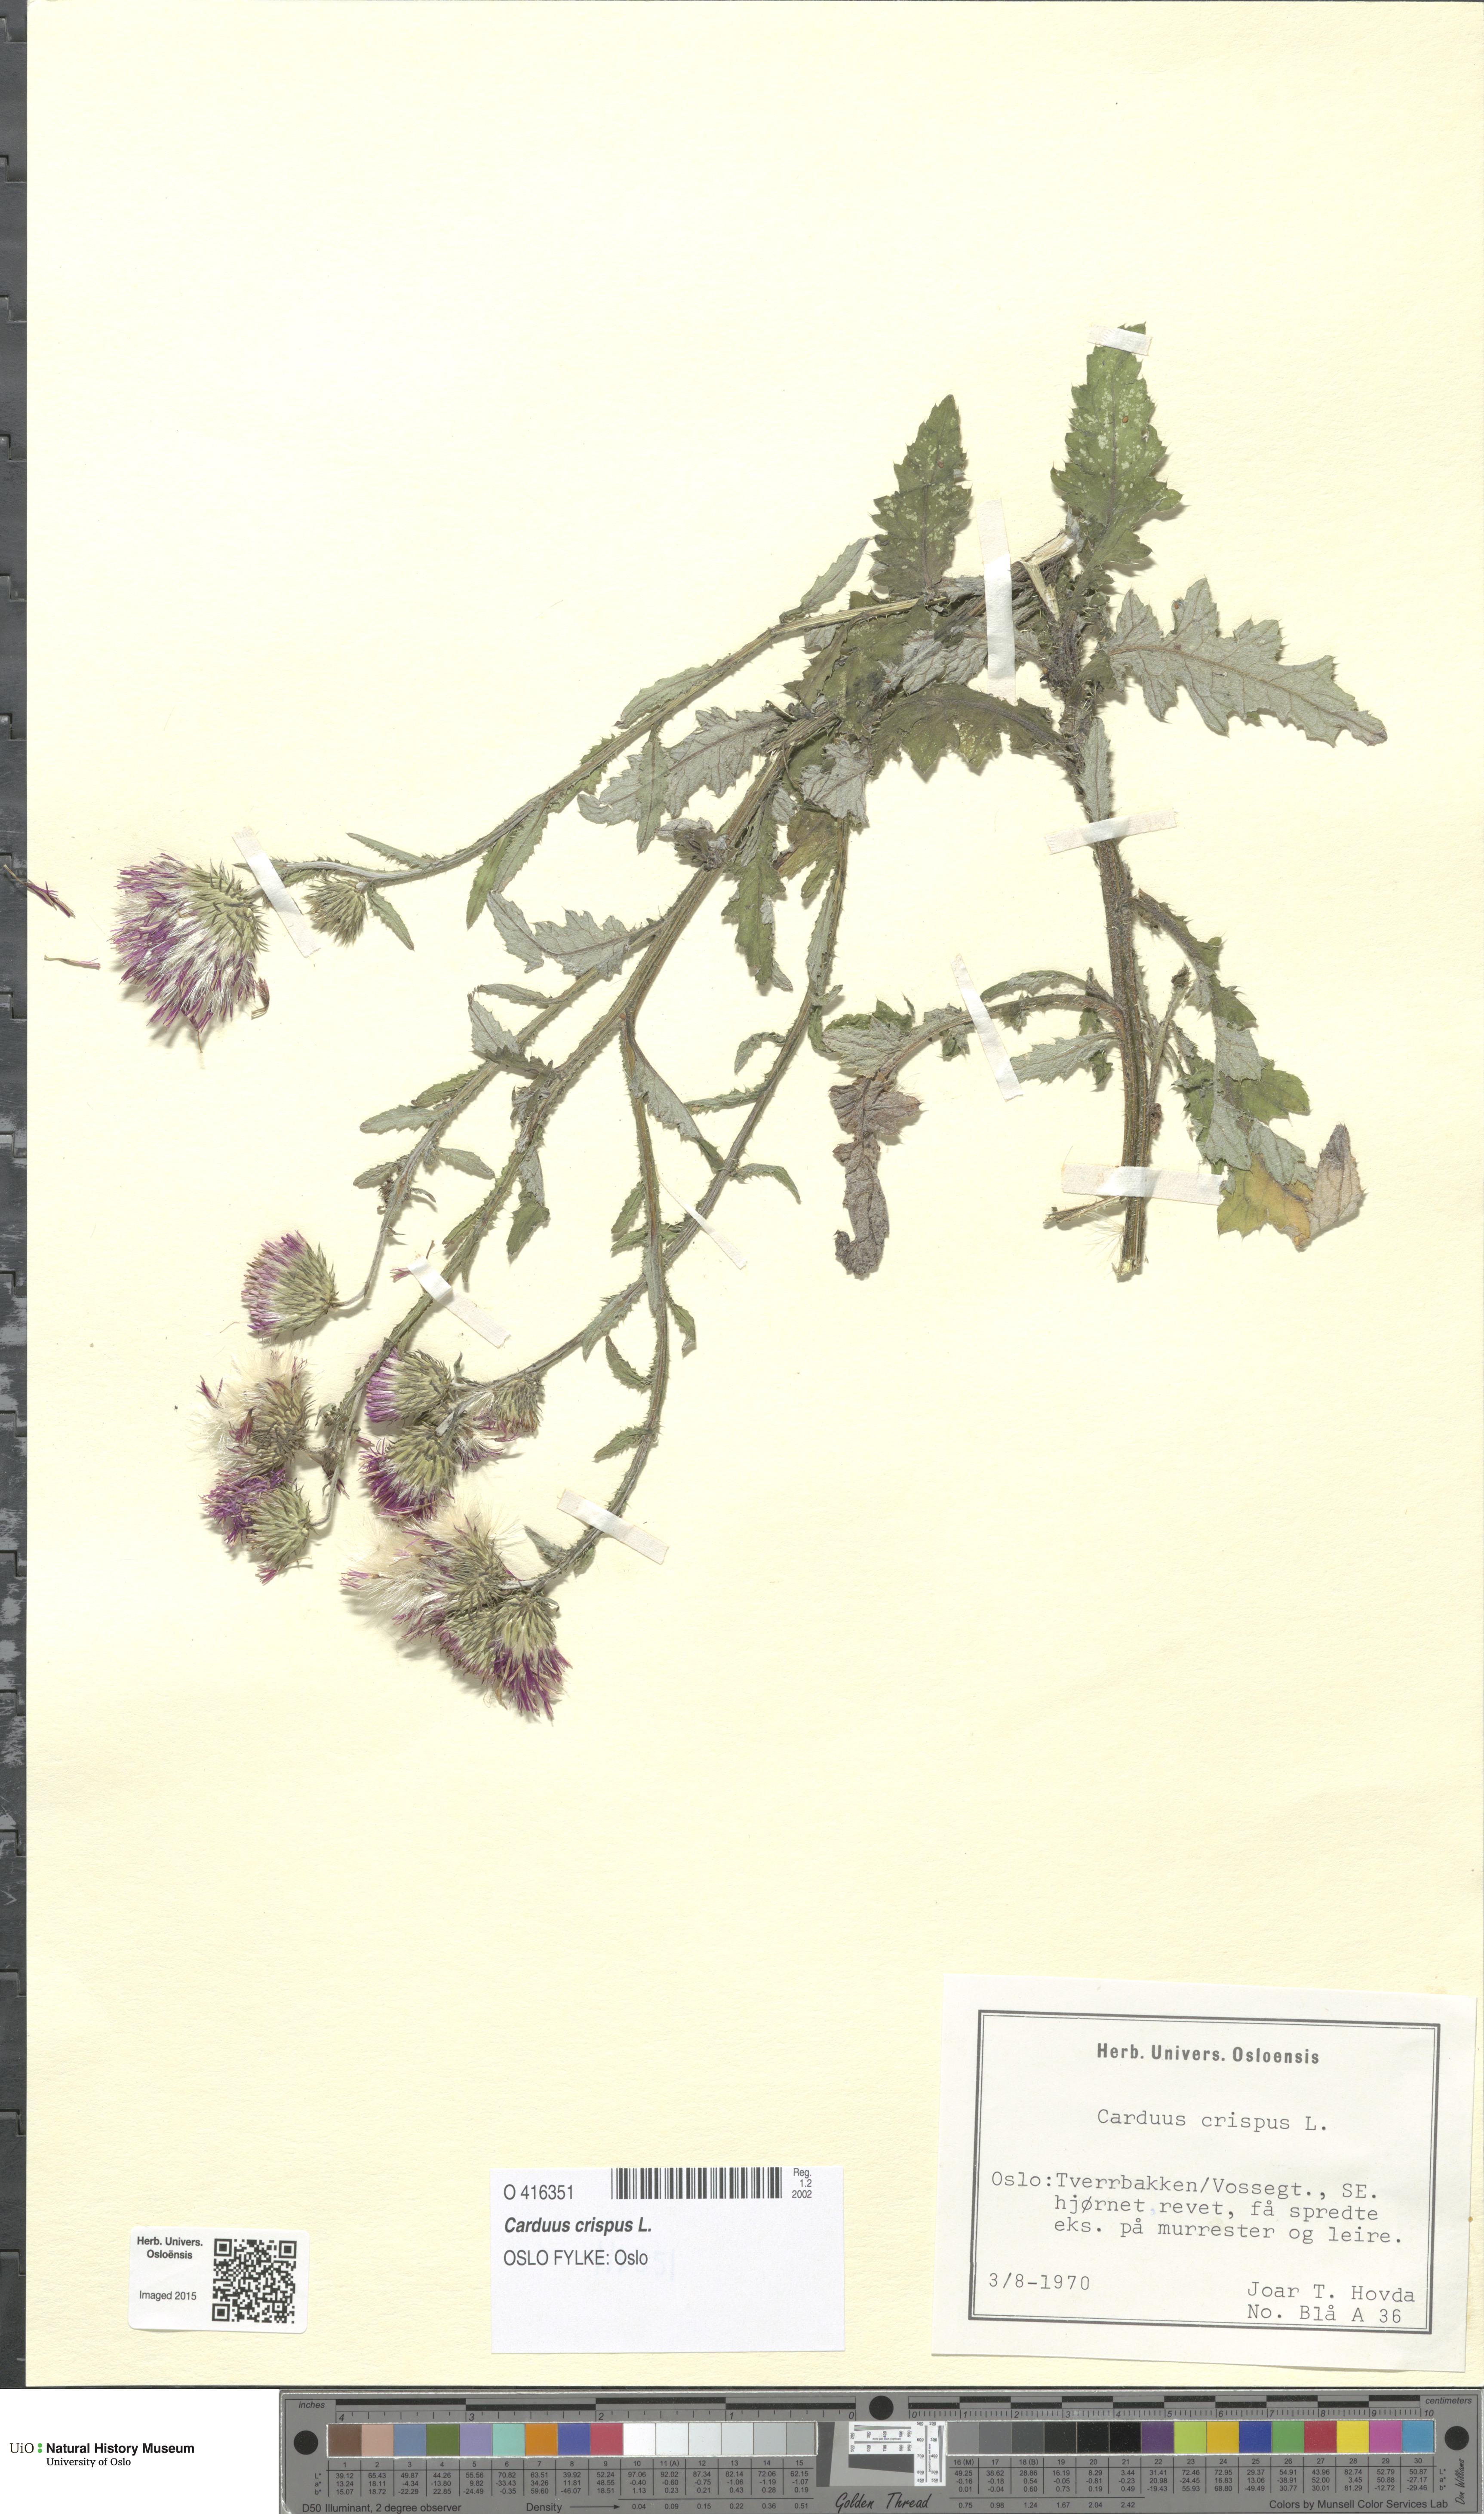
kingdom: Plantae
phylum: Tracheophyta
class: Magnoliopsida
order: Asterales
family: Asteraceae
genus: Carduus
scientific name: Carduus crispus
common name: Welted thistle
